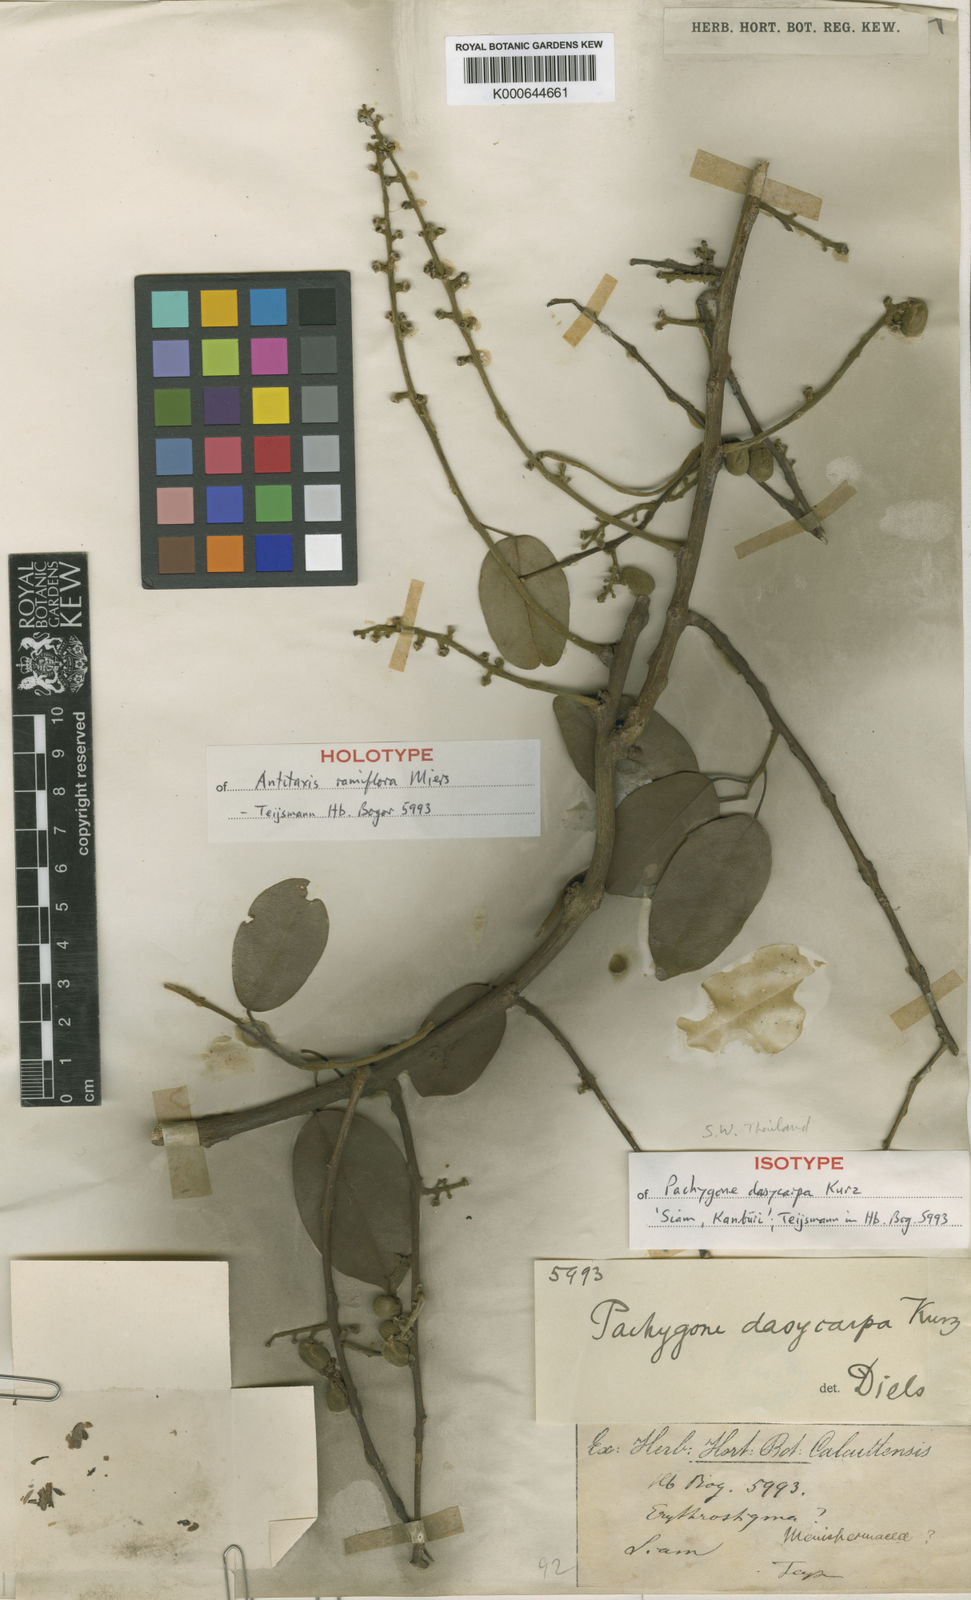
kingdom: Plantae
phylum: Tracheophyta
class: Magnoliopsida
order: Ranunculales
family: Menispermaceae
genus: Pachygone
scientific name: Pachygone dasycarpa
